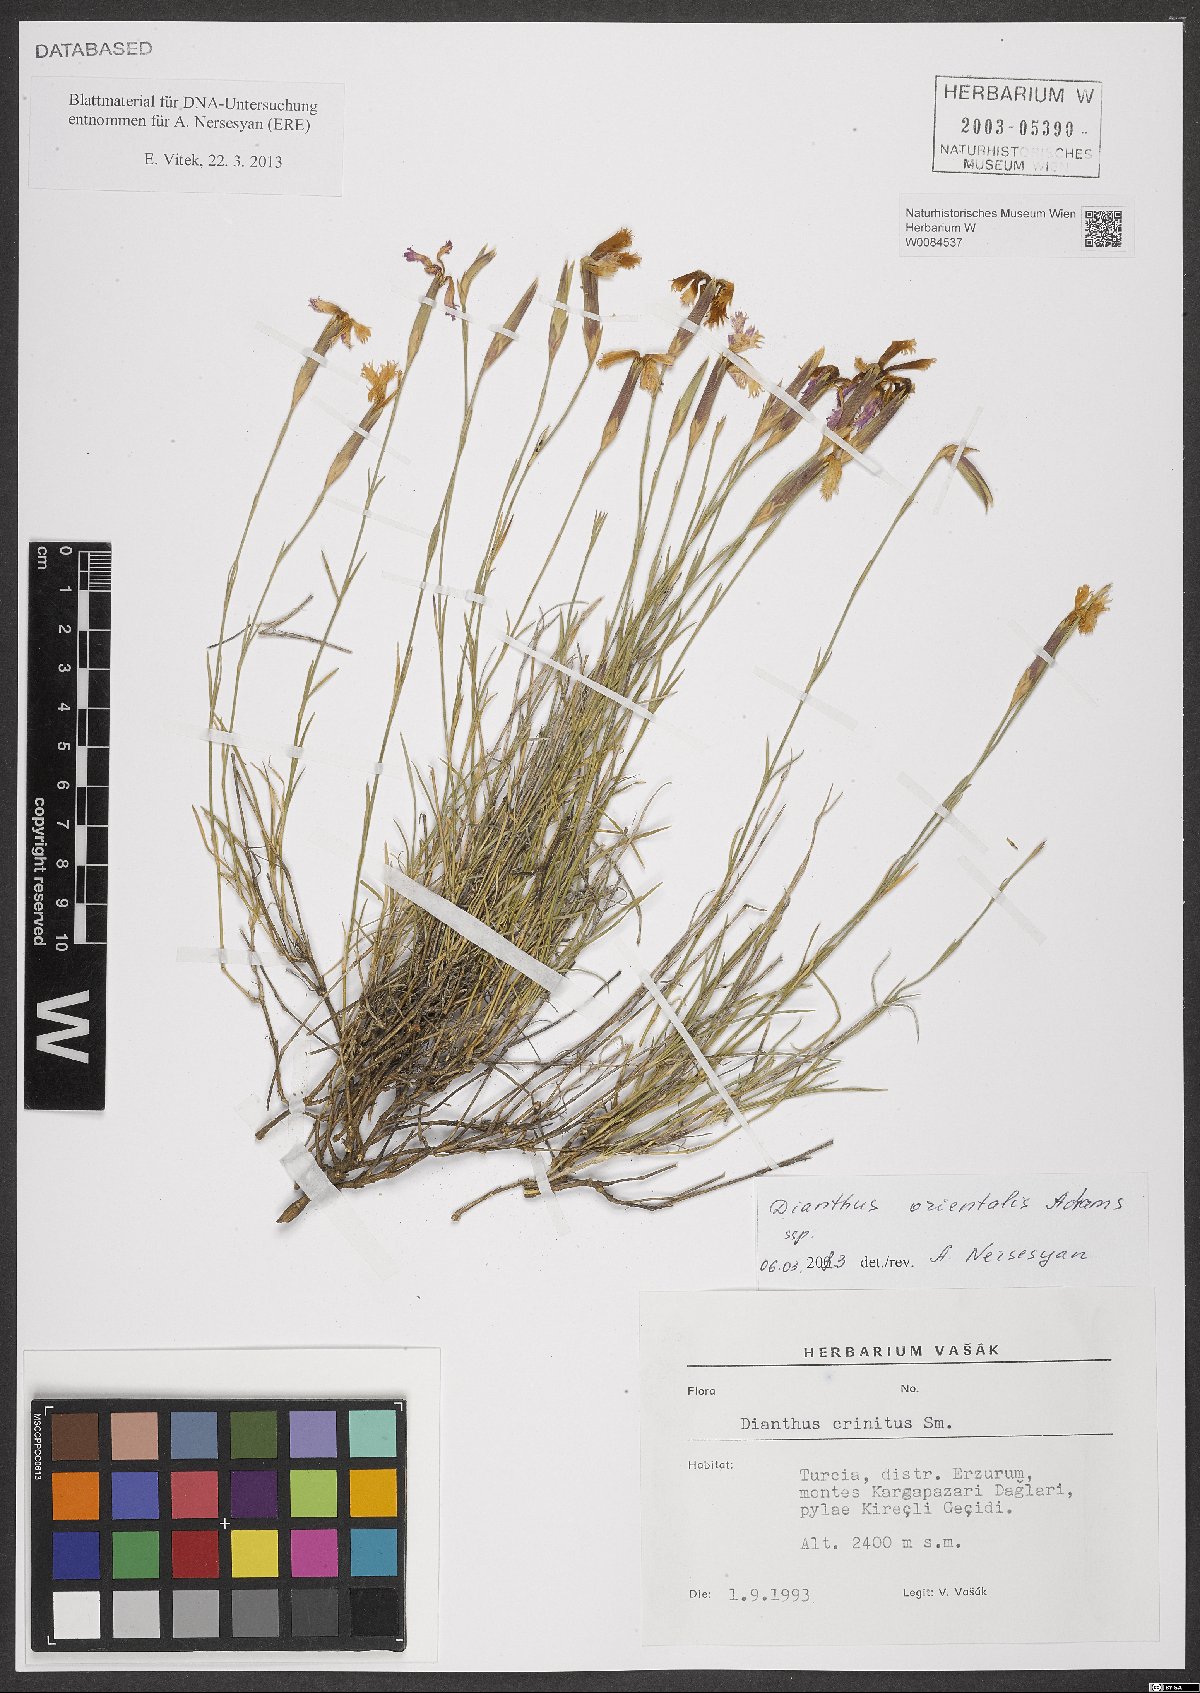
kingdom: Plantae
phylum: Tracheophyta
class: Magnoliopsida
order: Caryophyllales
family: Caryophyllaceae
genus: Dianthus
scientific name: Dianthus orientalis
